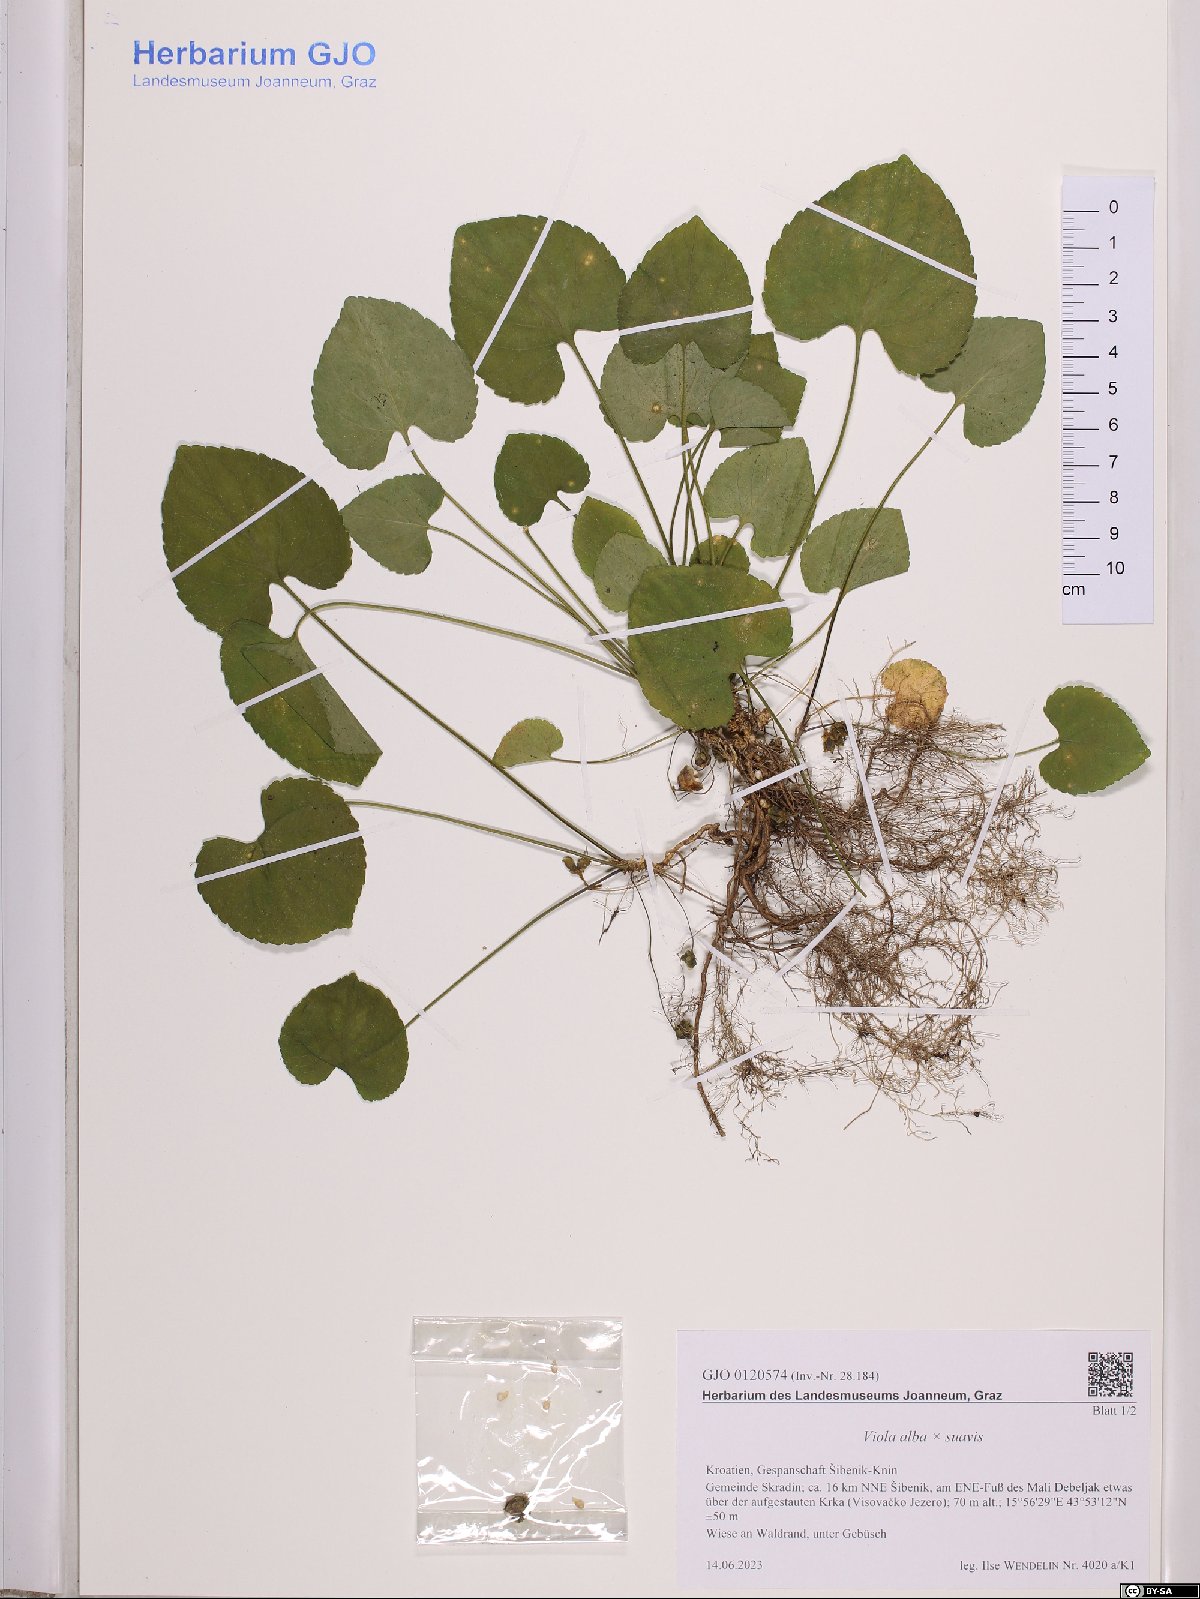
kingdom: Plantae
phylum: Tracheophyta
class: Magnoliopsida
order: Malpighiales
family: Violaceae
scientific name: Violaceae
